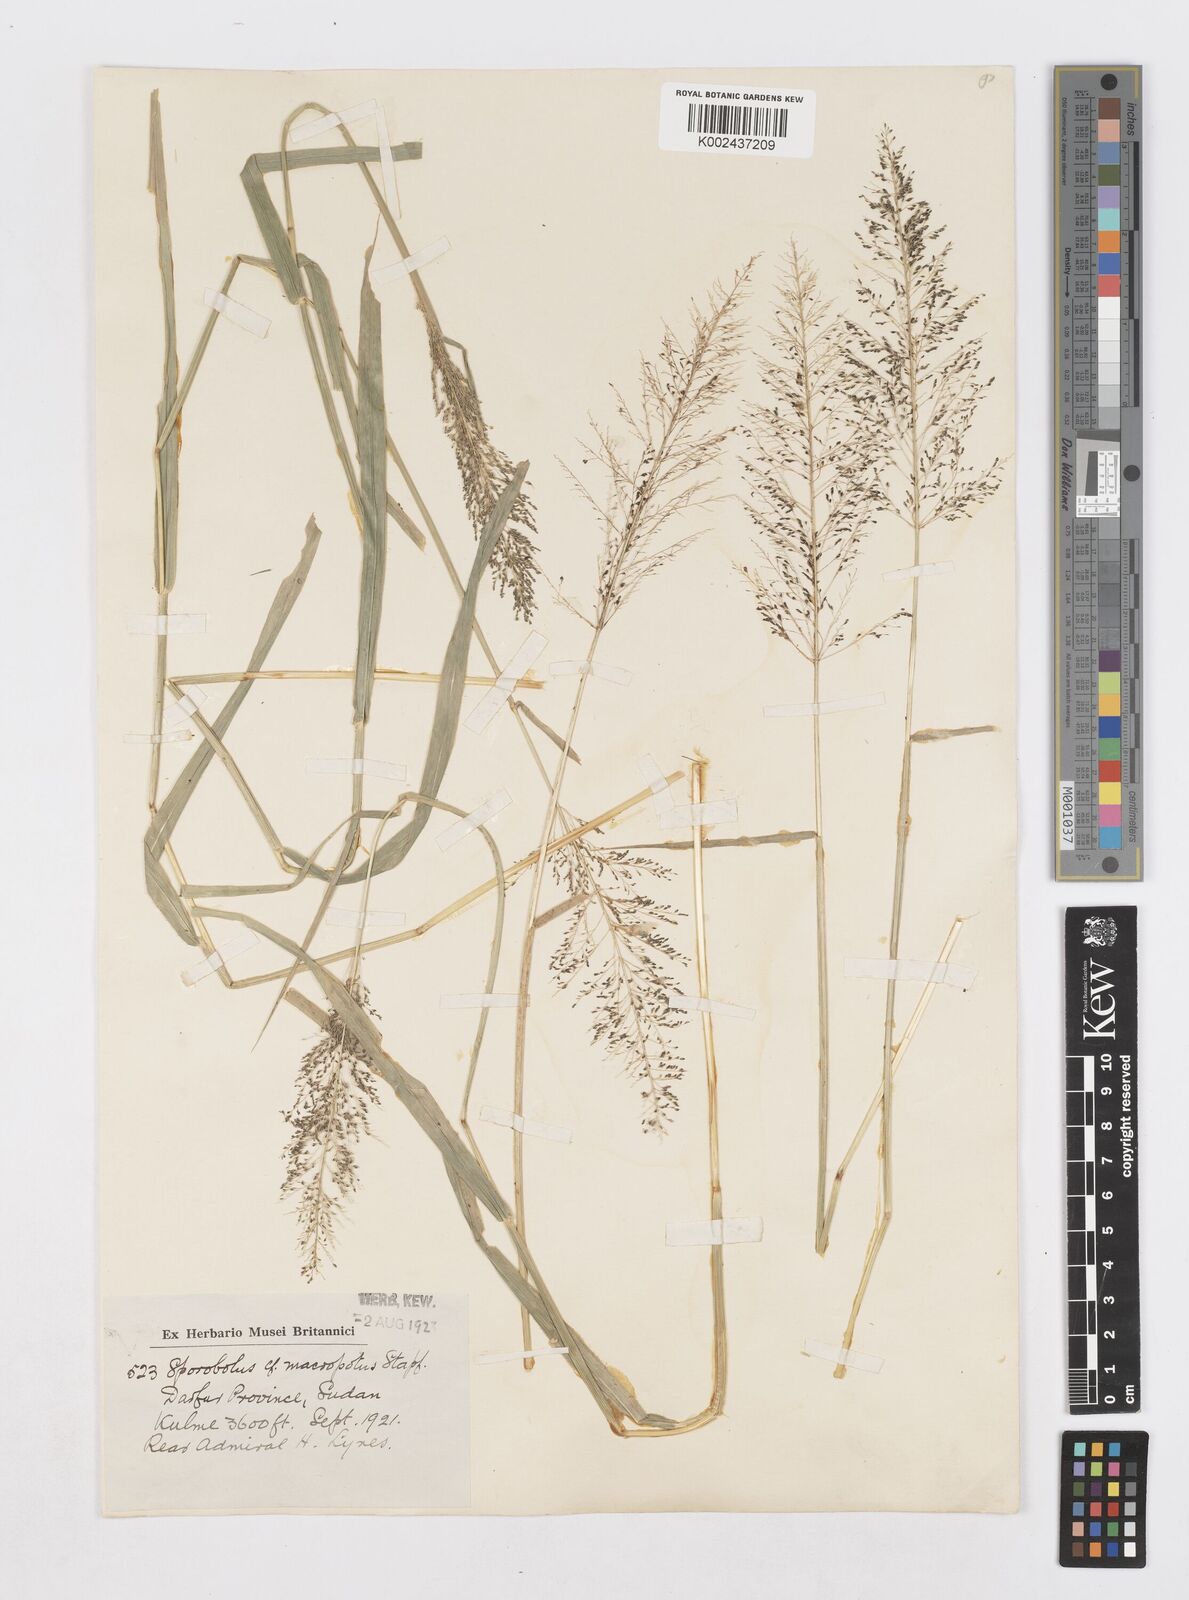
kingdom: Plantae
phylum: Tracheophyta
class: Liliopsida
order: Poales
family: Poaceae
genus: Sporobolus
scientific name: Sporobolus microprotus
